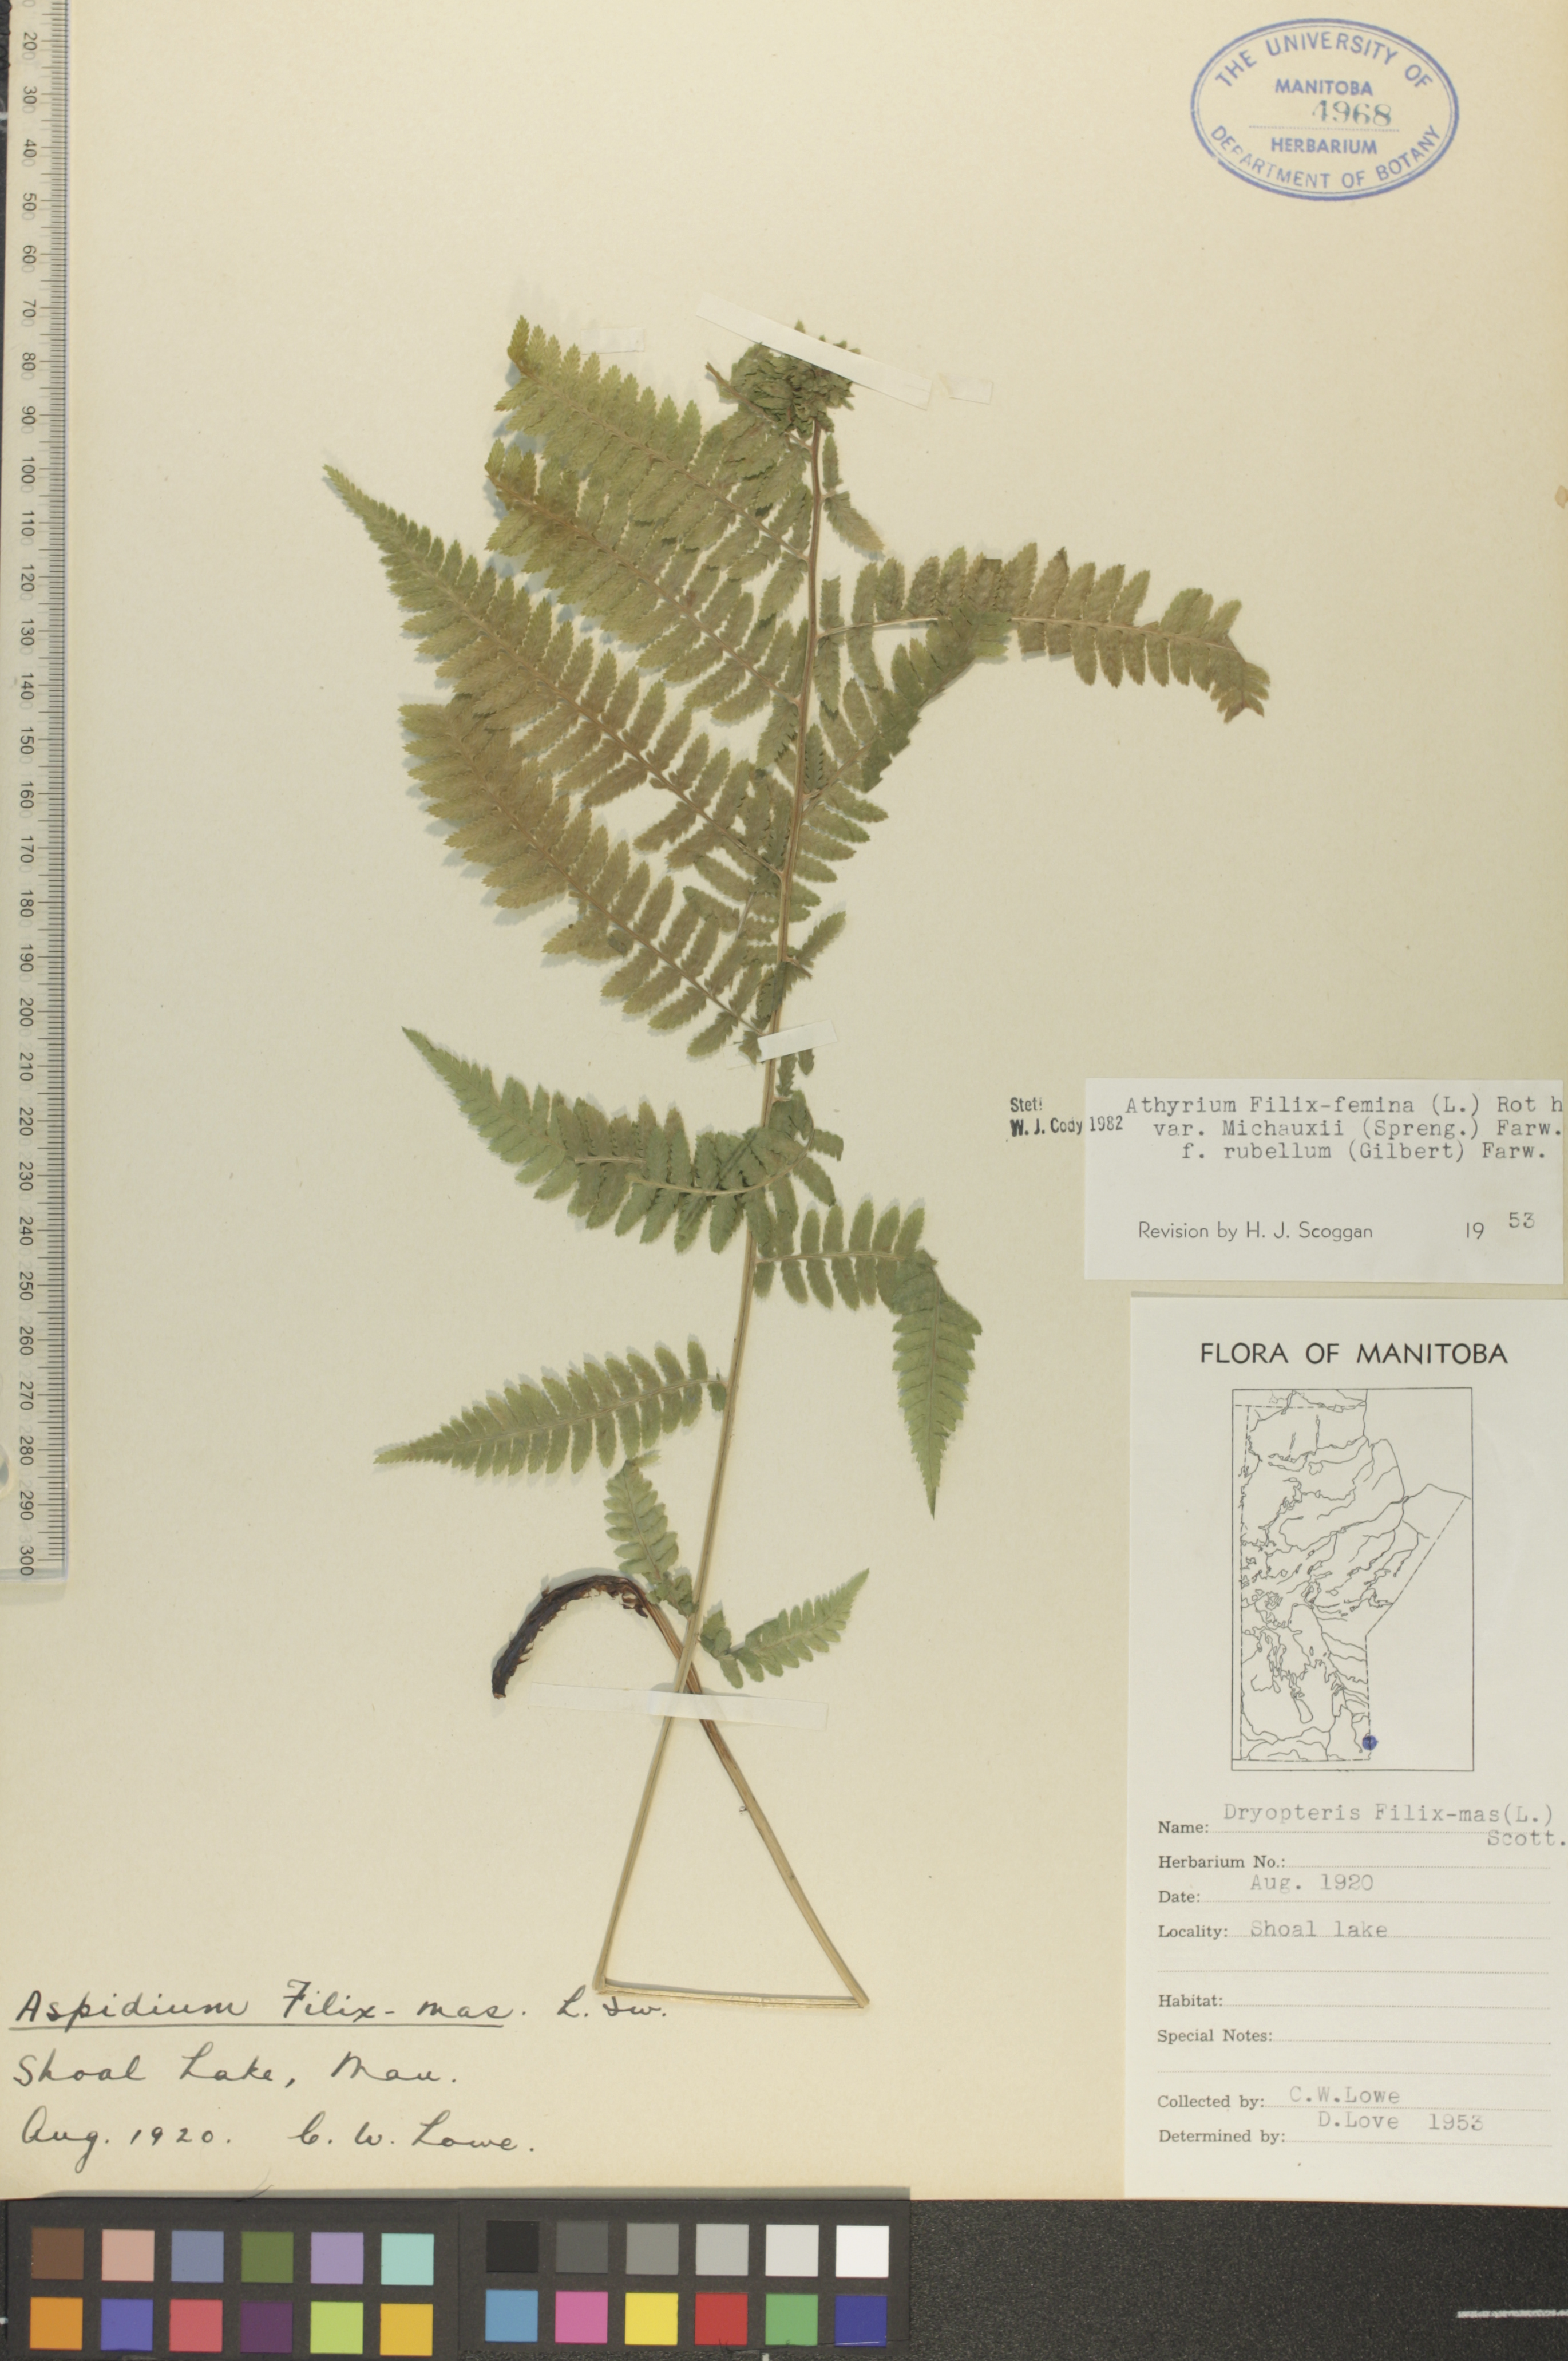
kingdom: Plantae
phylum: Tracheophyta
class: Polypodiopsida
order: Polypodiales
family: Athyriaceae
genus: Athyrium
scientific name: Athyrium angustum
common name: Northern lady fern
